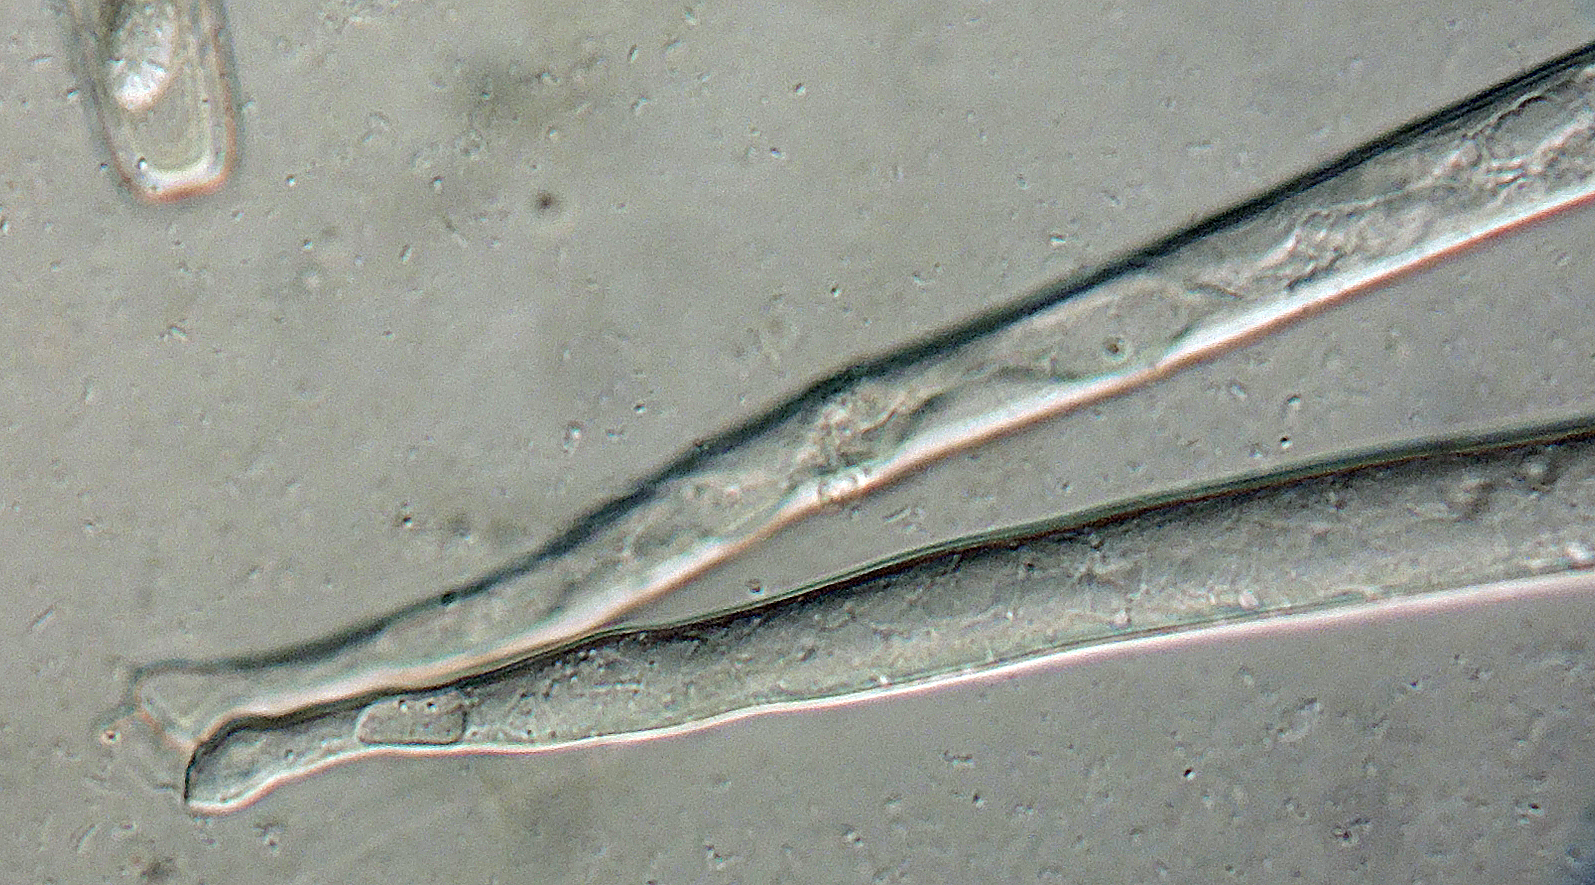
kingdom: Fungi
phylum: Ascomycota
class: Pezizomycetes
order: Pezizales
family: Pezizaceae
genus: Peziza
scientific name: Peziza vesiculosa
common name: blære-bægersvamp
